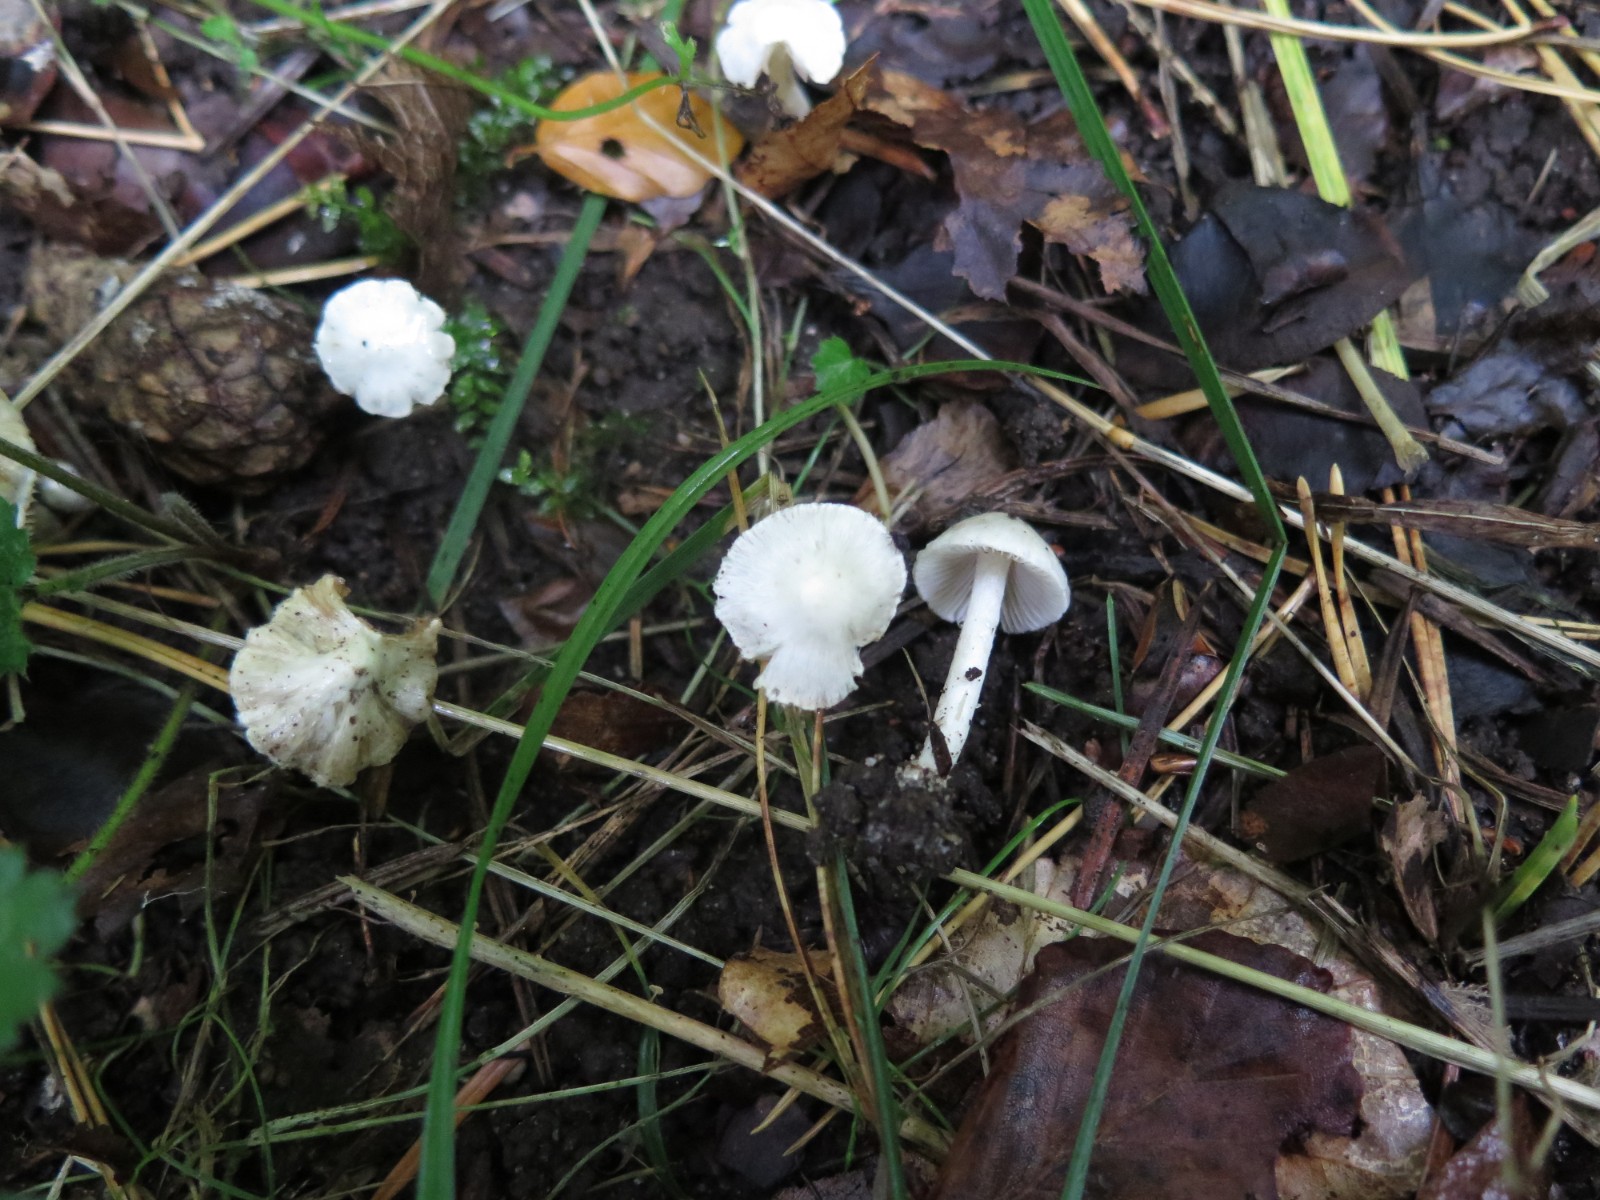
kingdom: Fungi
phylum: Basidiomycota
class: Agaricomycetes
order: Agaricales
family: Inocybaceae
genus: Inocybe
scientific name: Inocybe
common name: almindelig trævlhat
